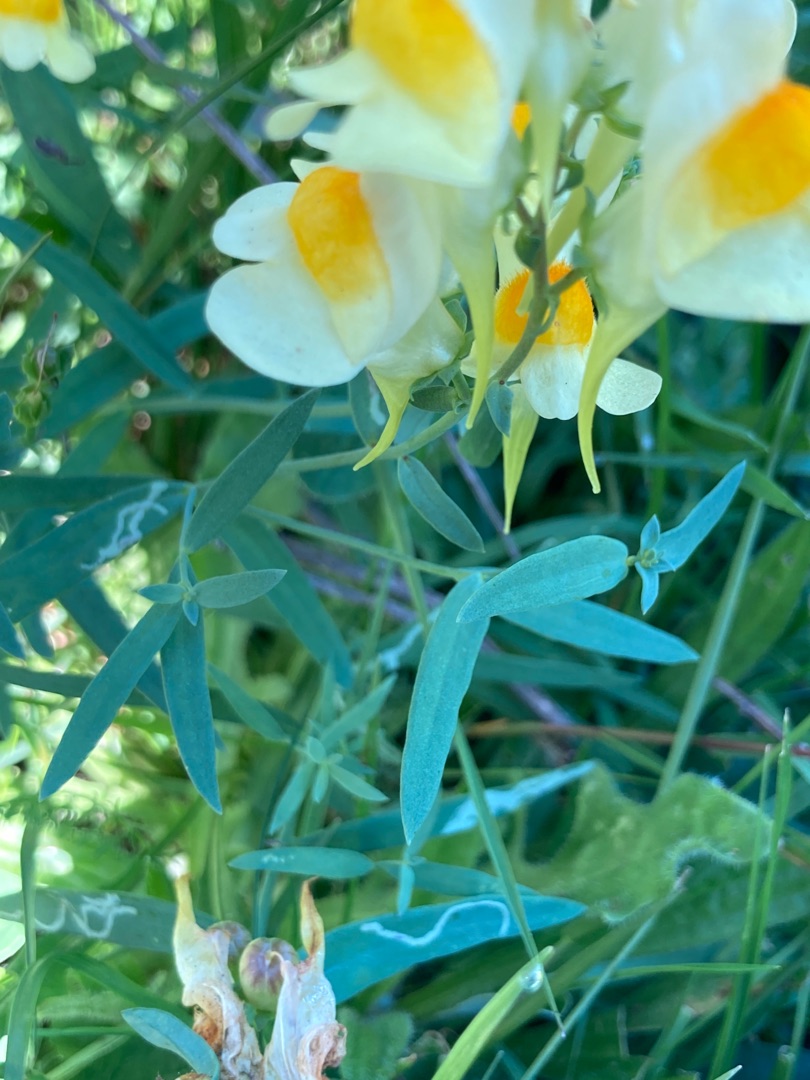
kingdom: Plantae
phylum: Tracheophyta
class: Magnoliopsida
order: Lamiales
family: Plantaginaceae
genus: Linaria
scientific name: Linaria vulgaris
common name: Almindelig torskemund
